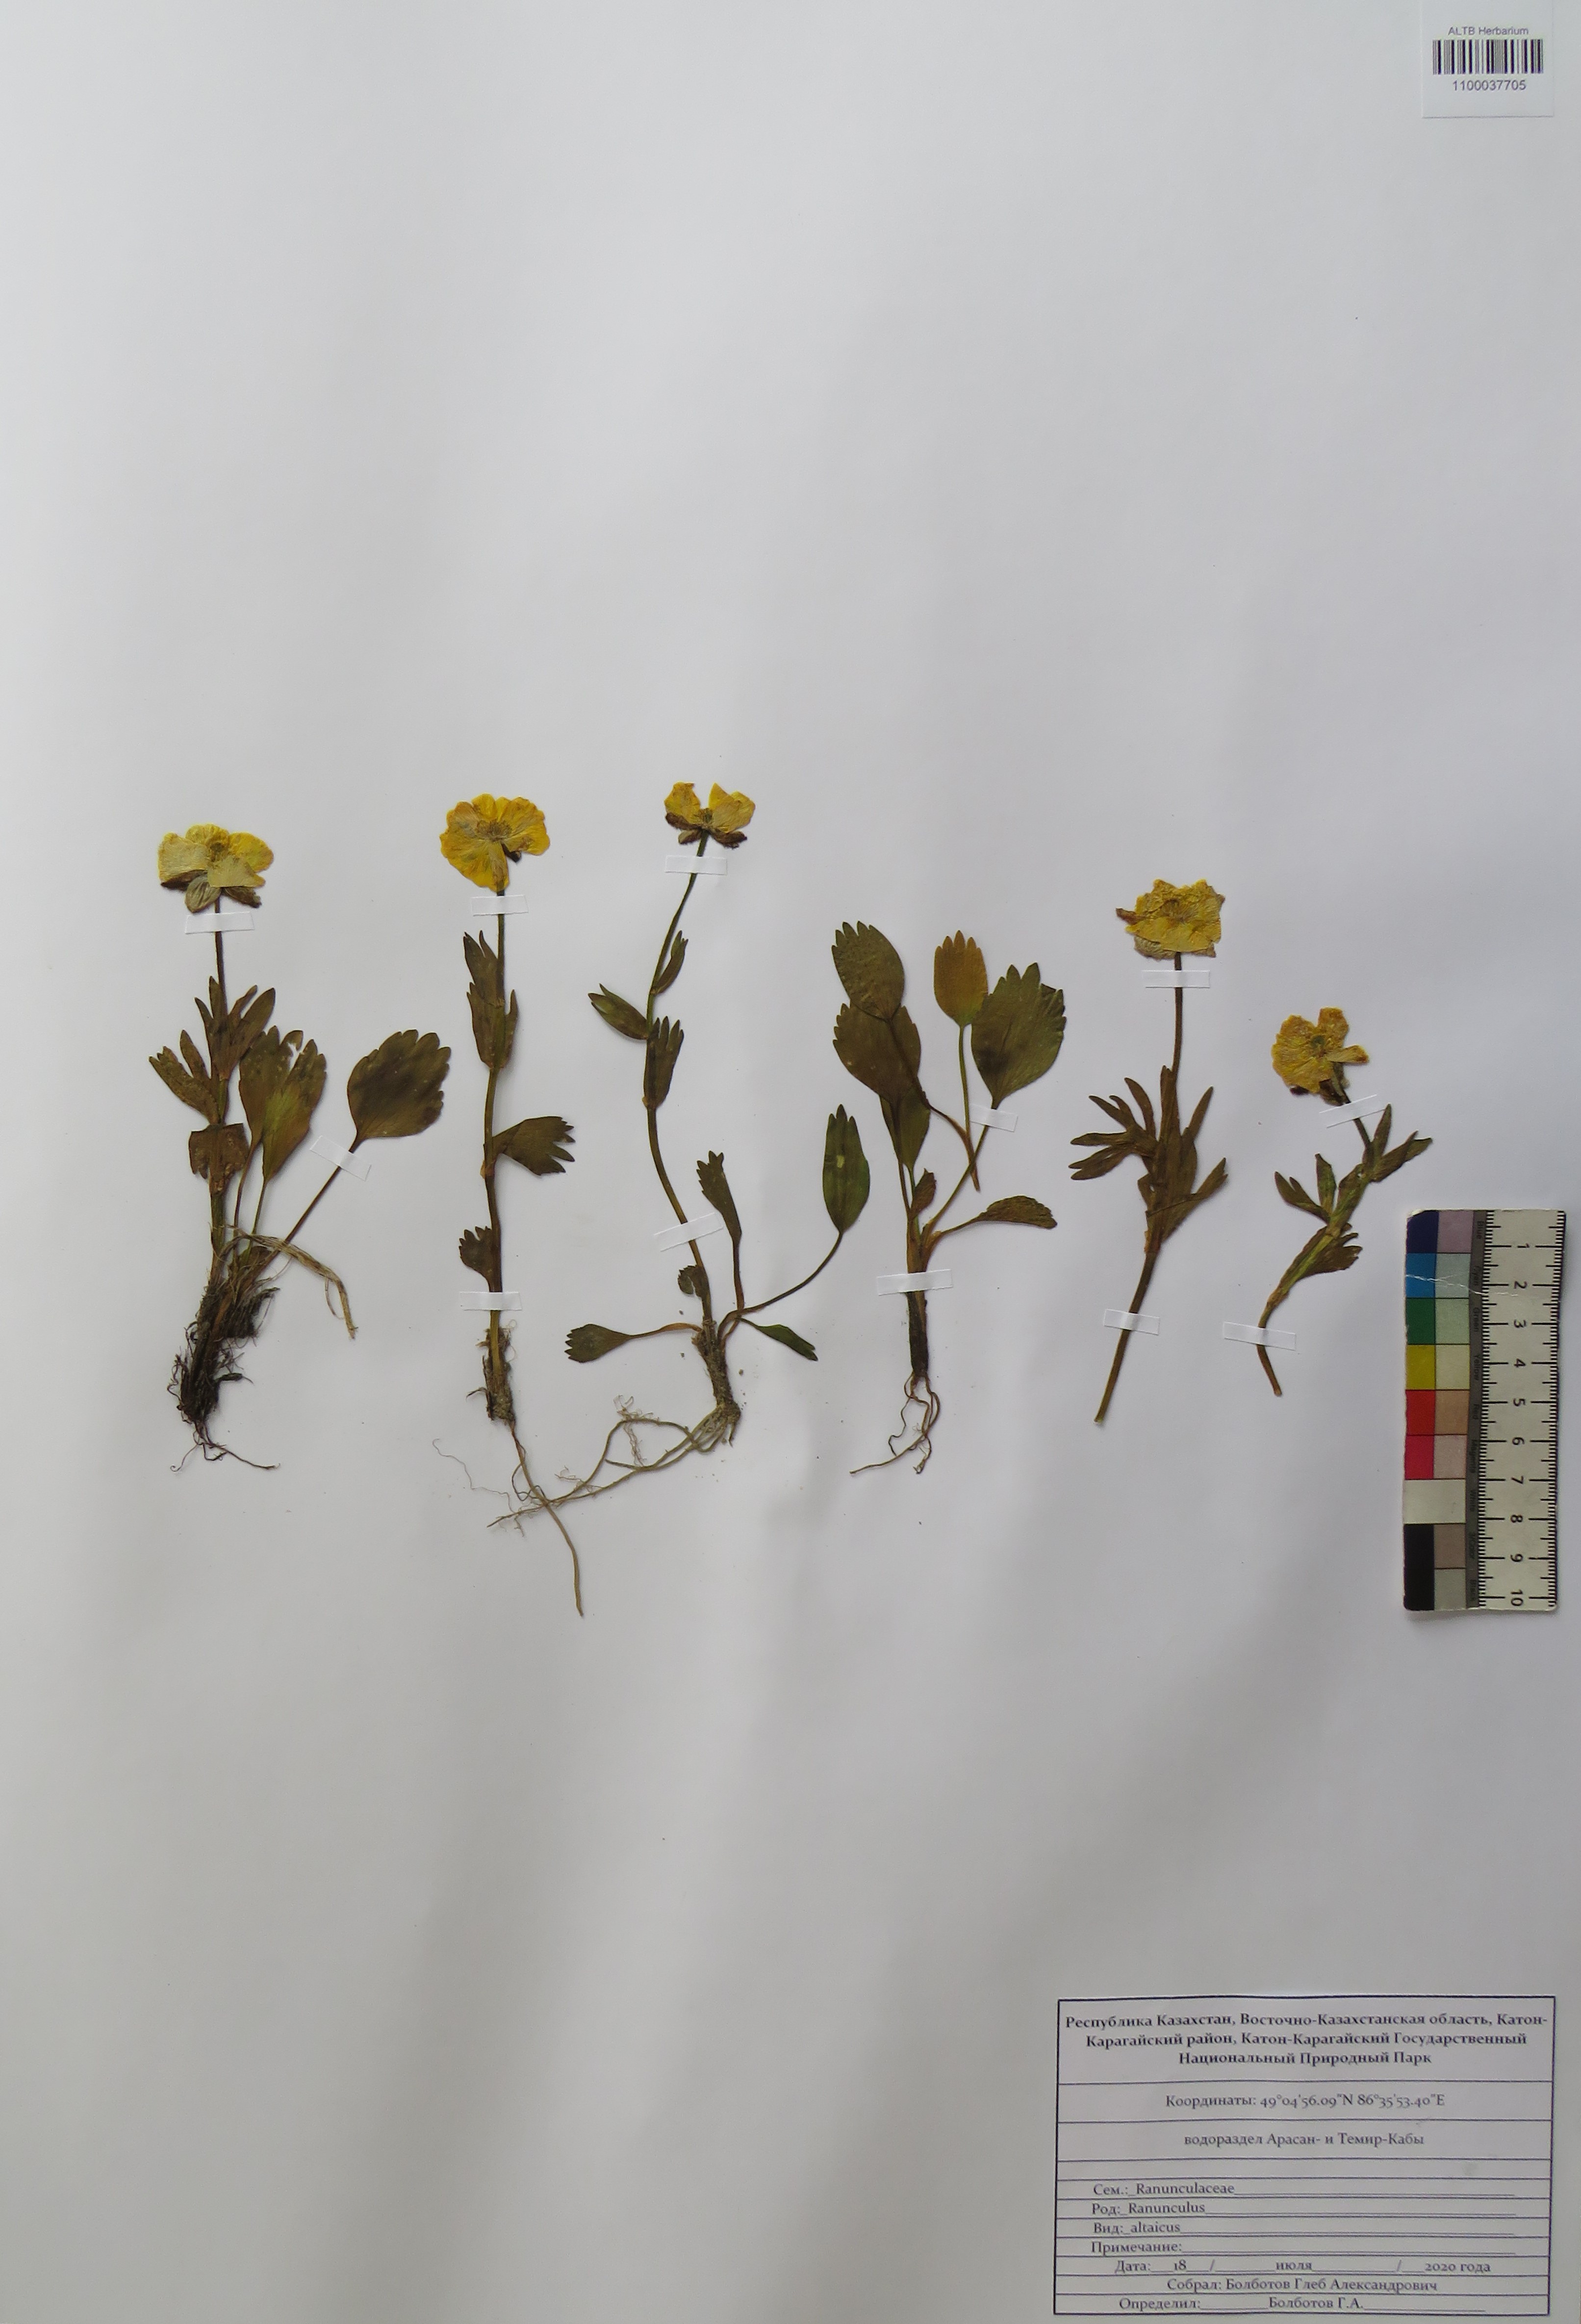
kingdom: Plantae
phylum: Tracheophyta
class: Magnoliopsida
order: Ranunculales
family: Ranunculaceae
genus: Ranunculus
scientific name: Ranunculus altaicus
